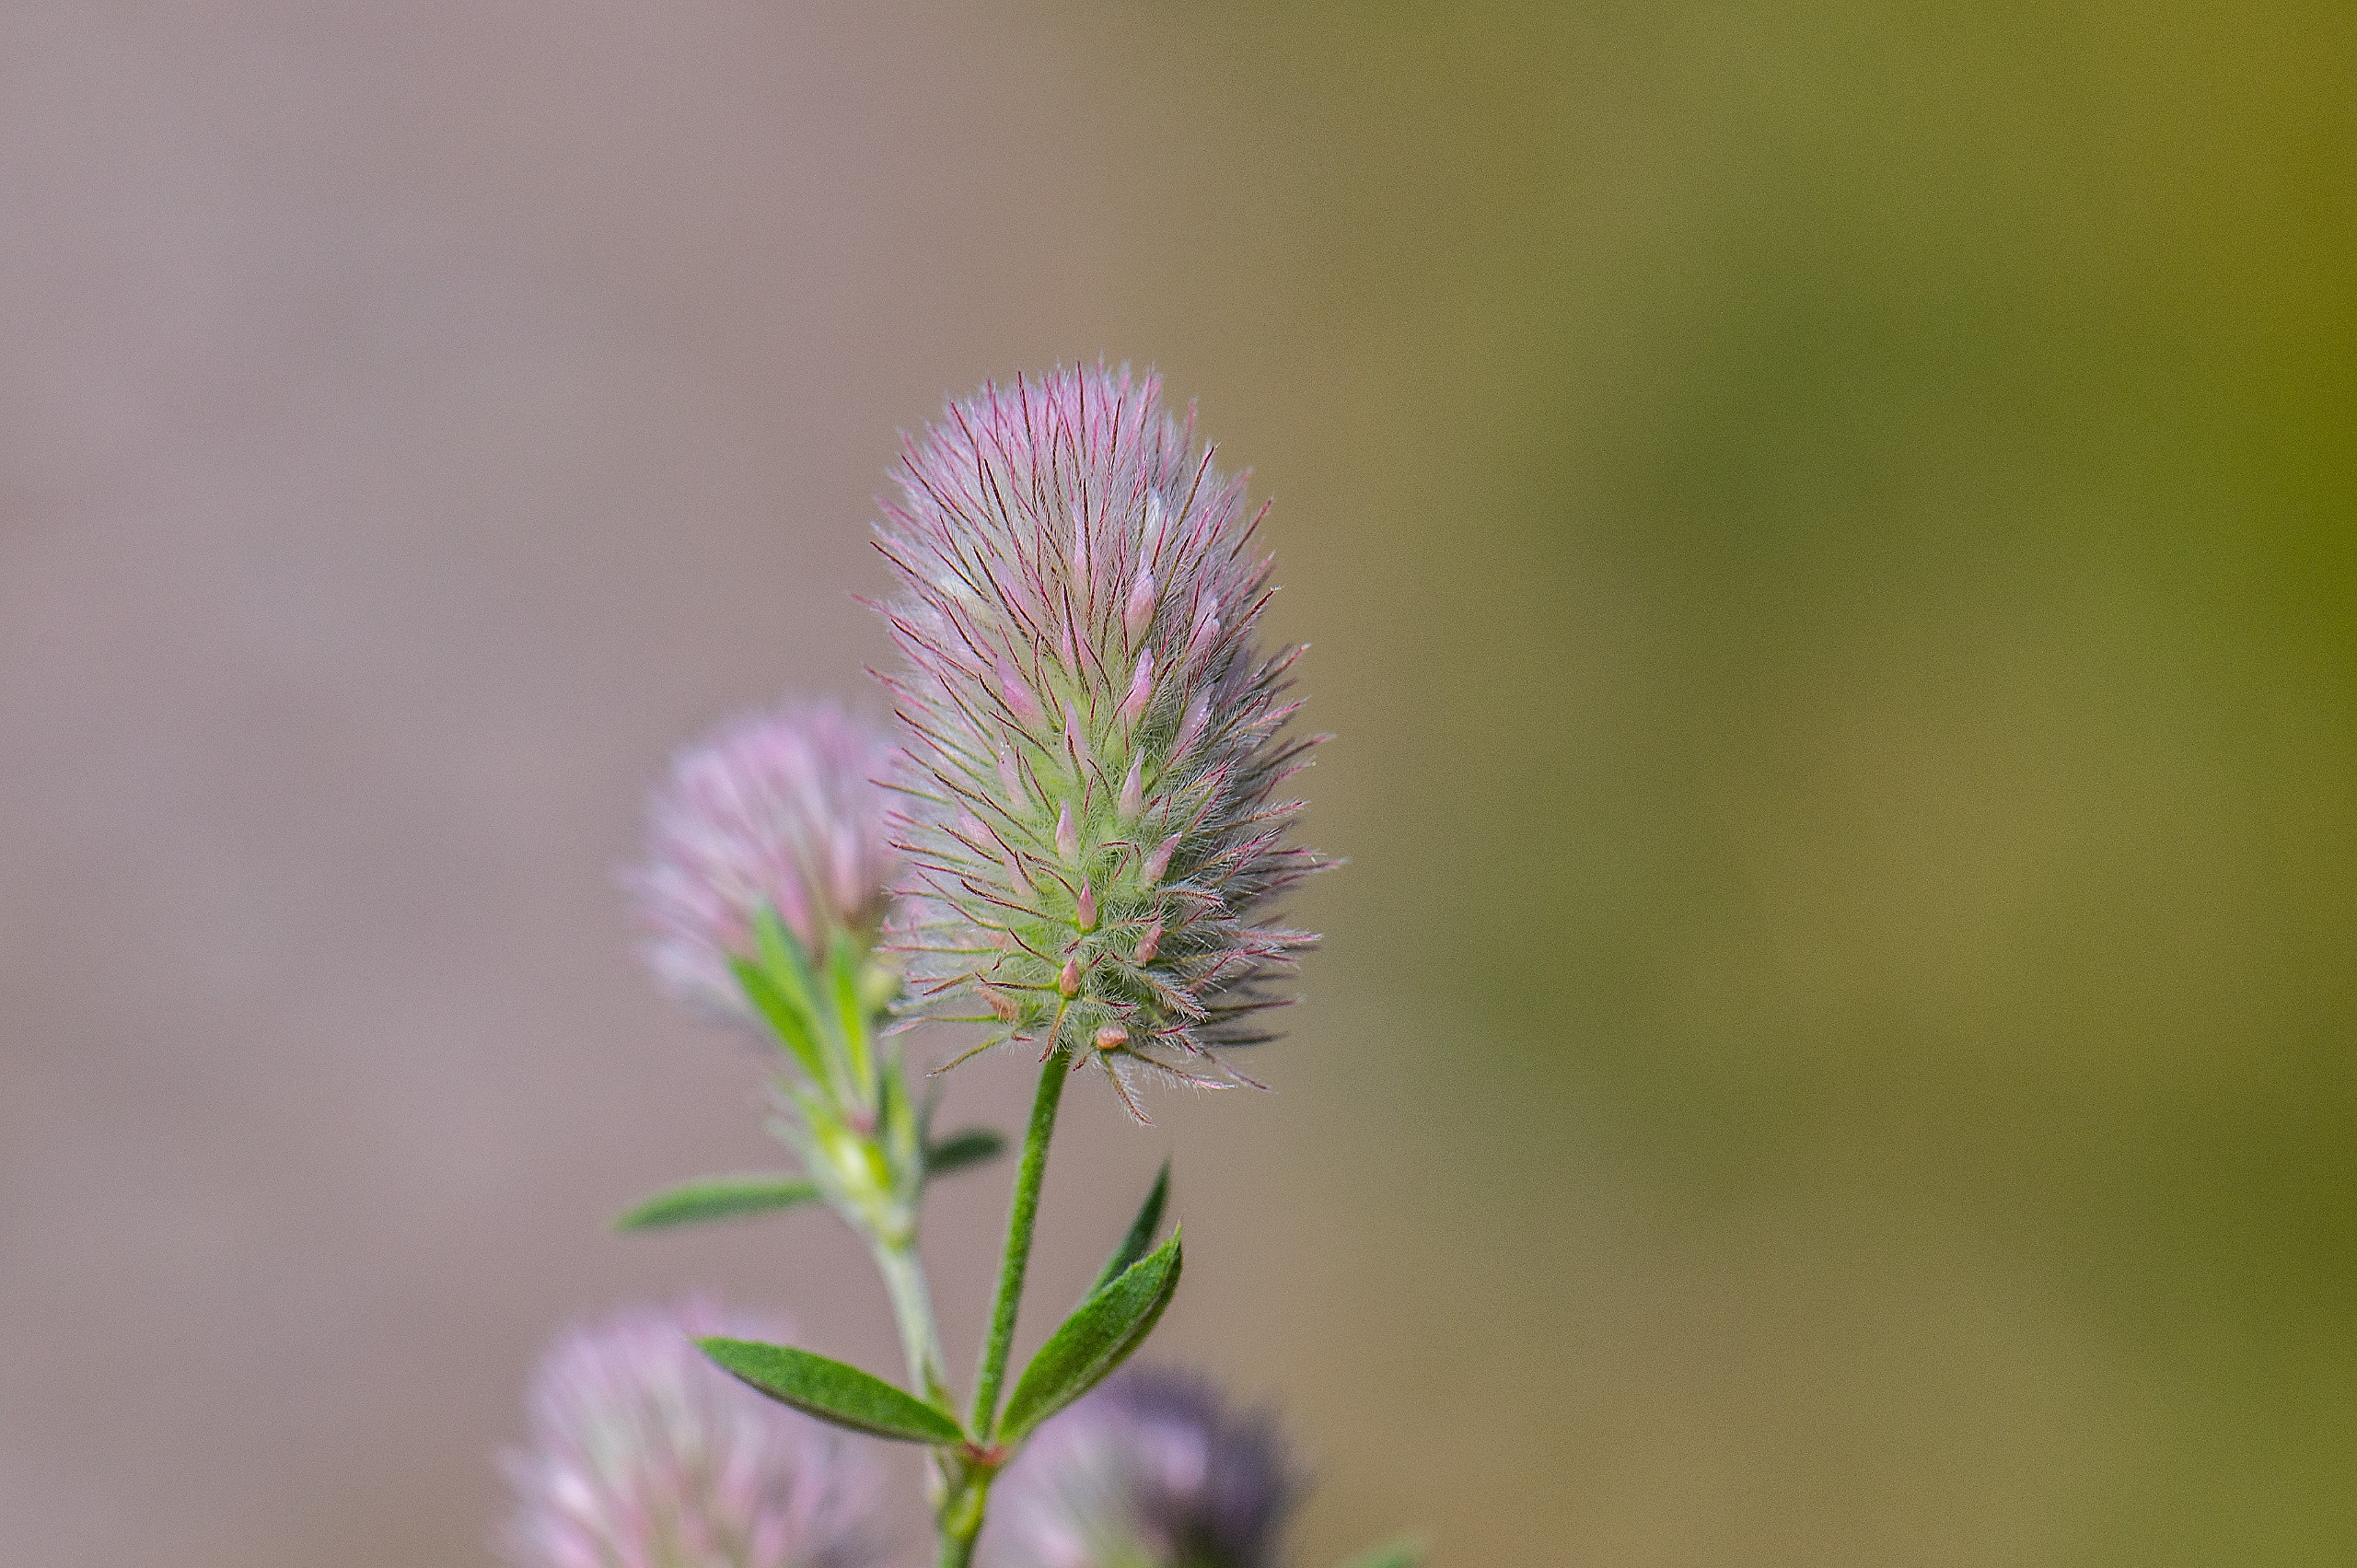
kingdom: Plantae
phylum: Tracheophyta
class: Magnoliopsida
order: Fabales
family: Fabaceae
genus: Trifolium
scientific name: Trifolium arvense
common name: Hare-kløver
